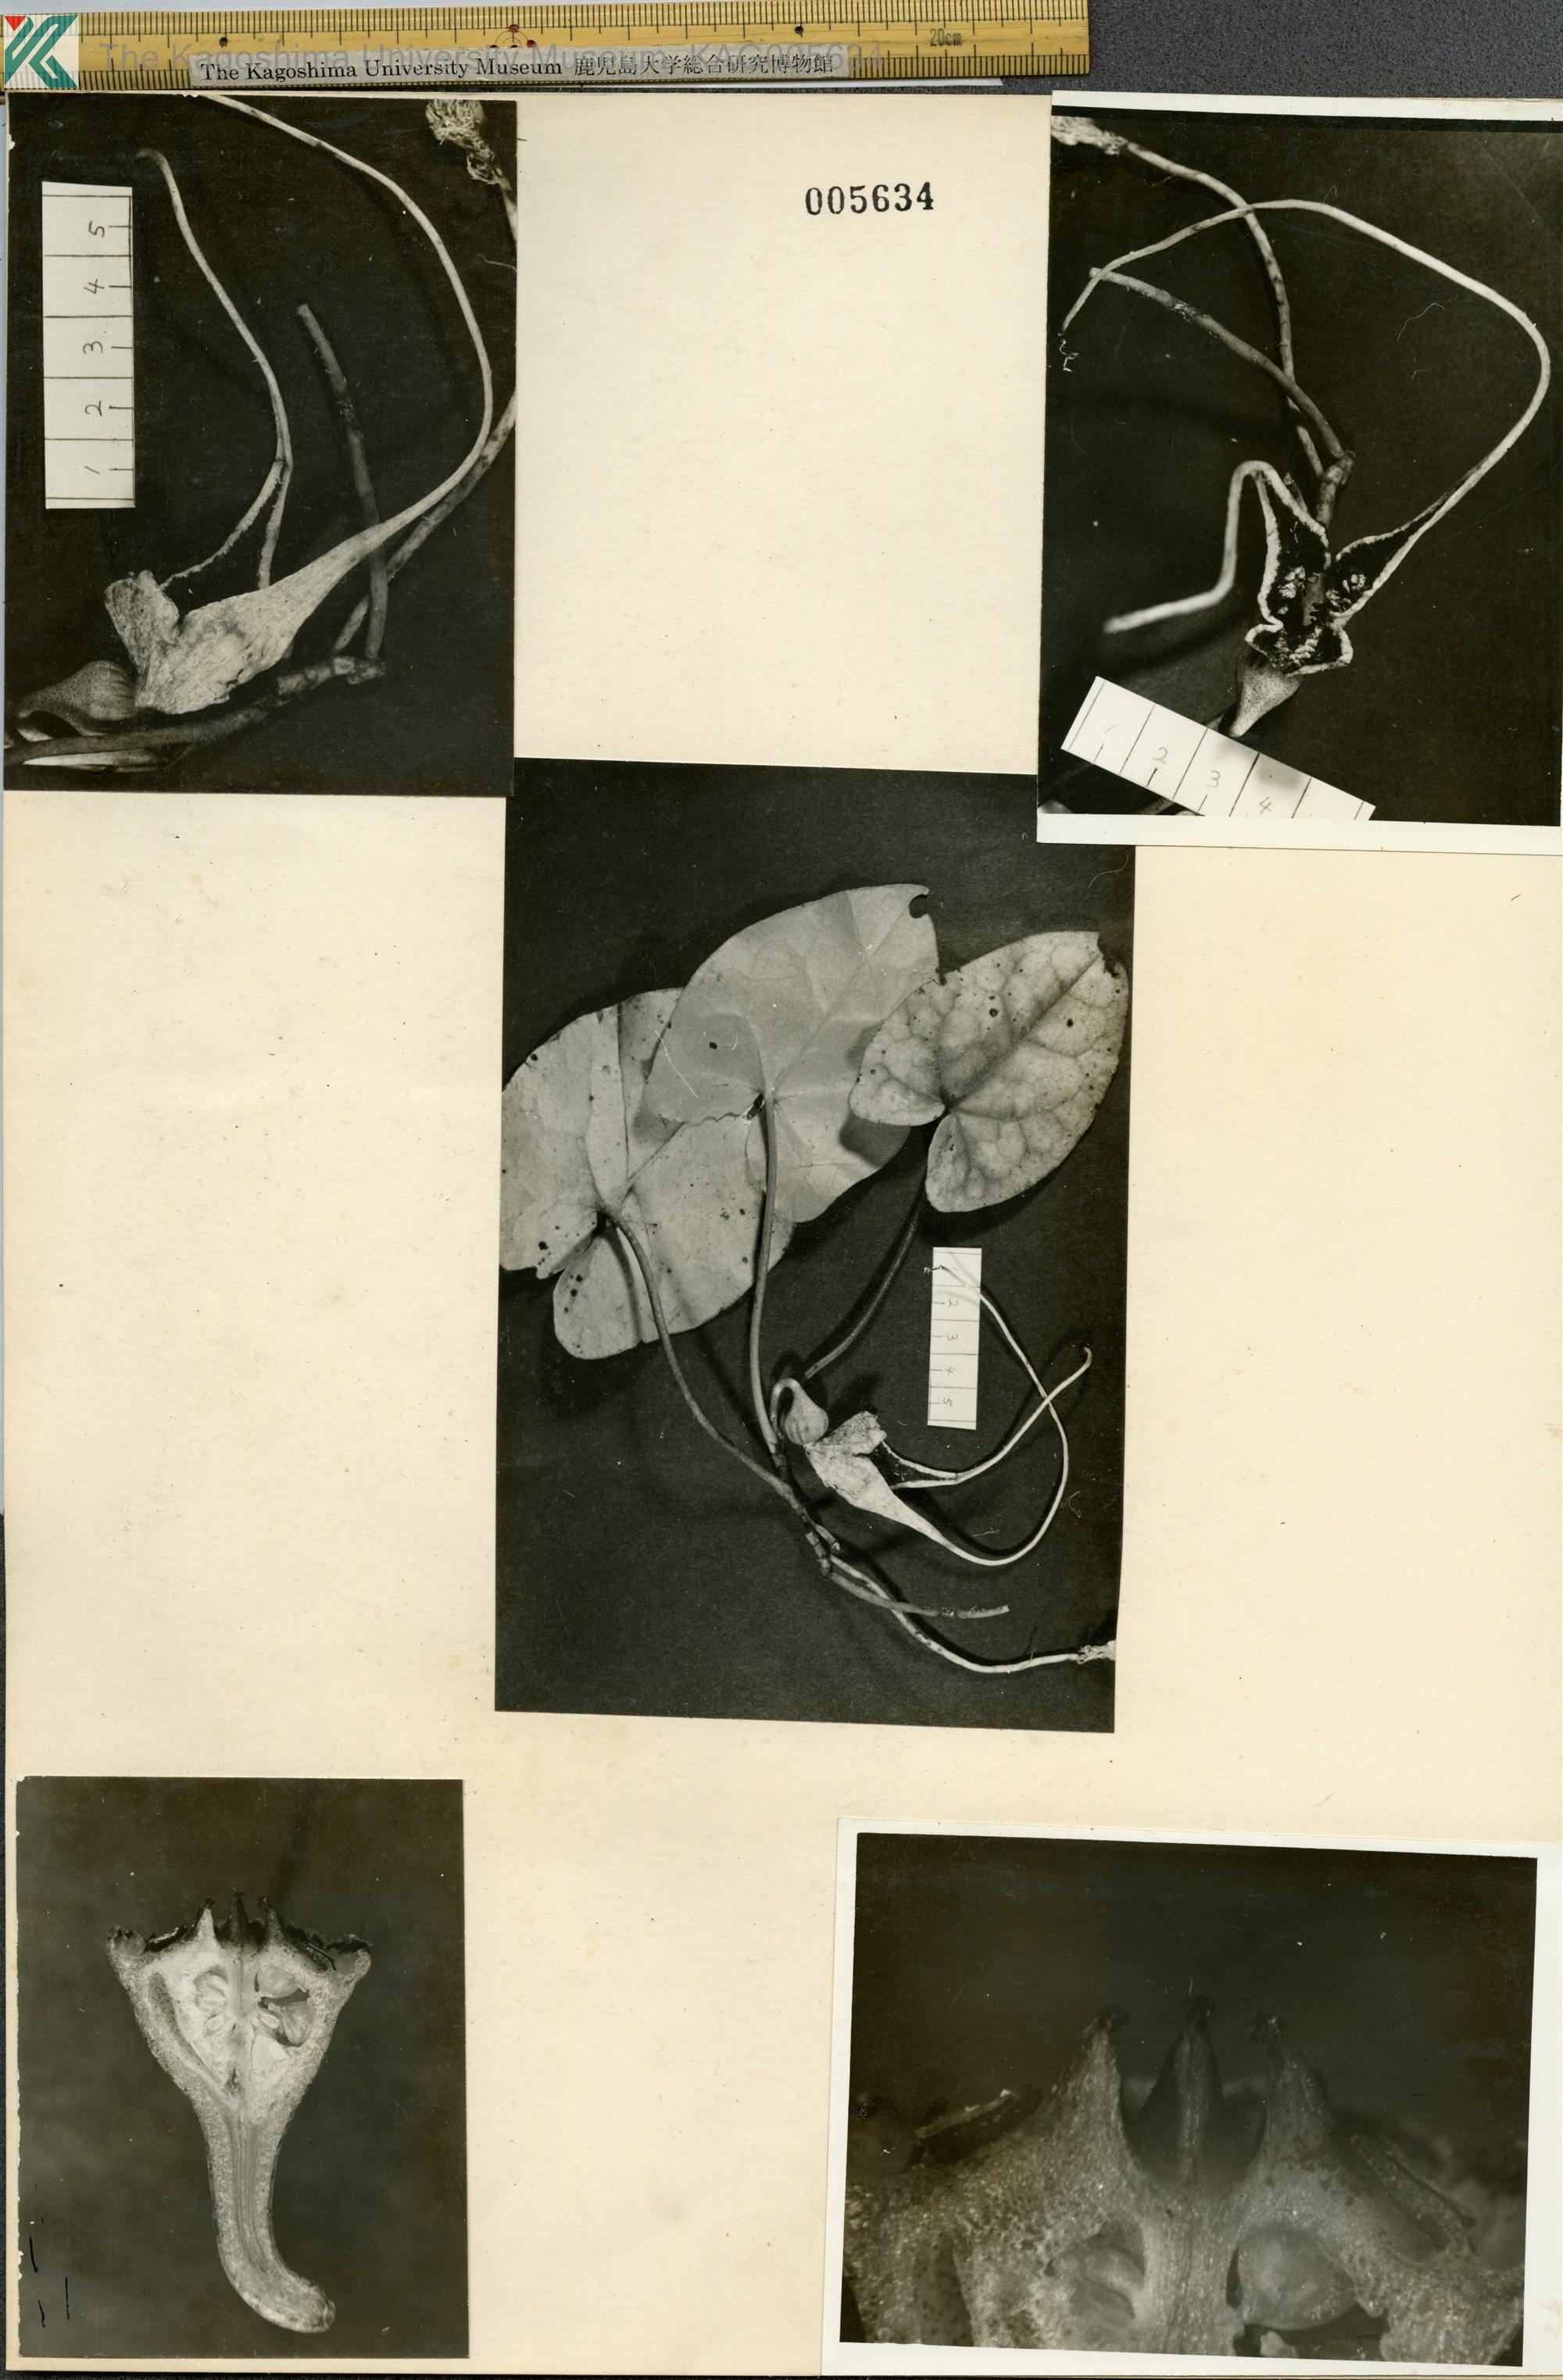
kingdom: Plantae
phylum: Tracheophyta
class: Magnoliopsida
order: Piperales
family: Aristolochiaceae
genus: Asarum
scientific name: Asarum minamitanianum
